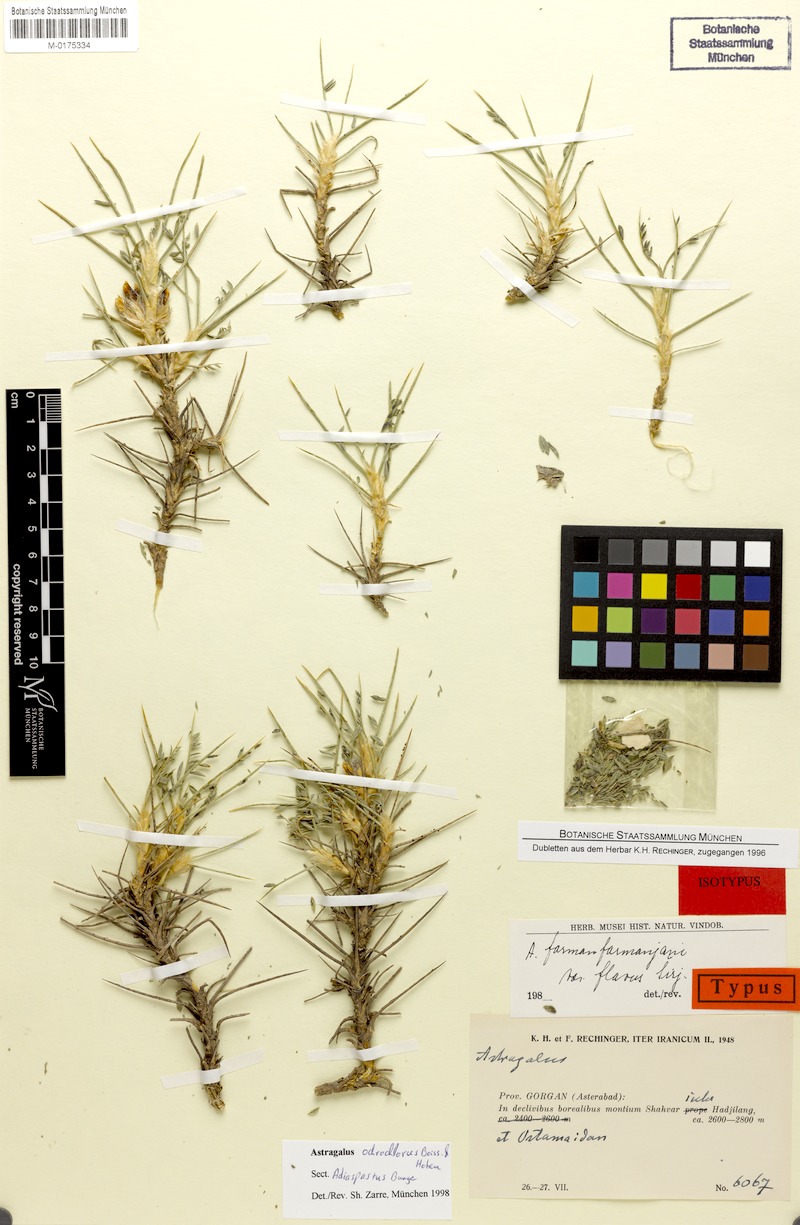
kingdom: Plantae
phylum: Tracheophyta
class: Magnoliopsida
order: Fabales
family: Fabaceae
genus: Astragalus
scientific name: Astragalus ochrochlorus
